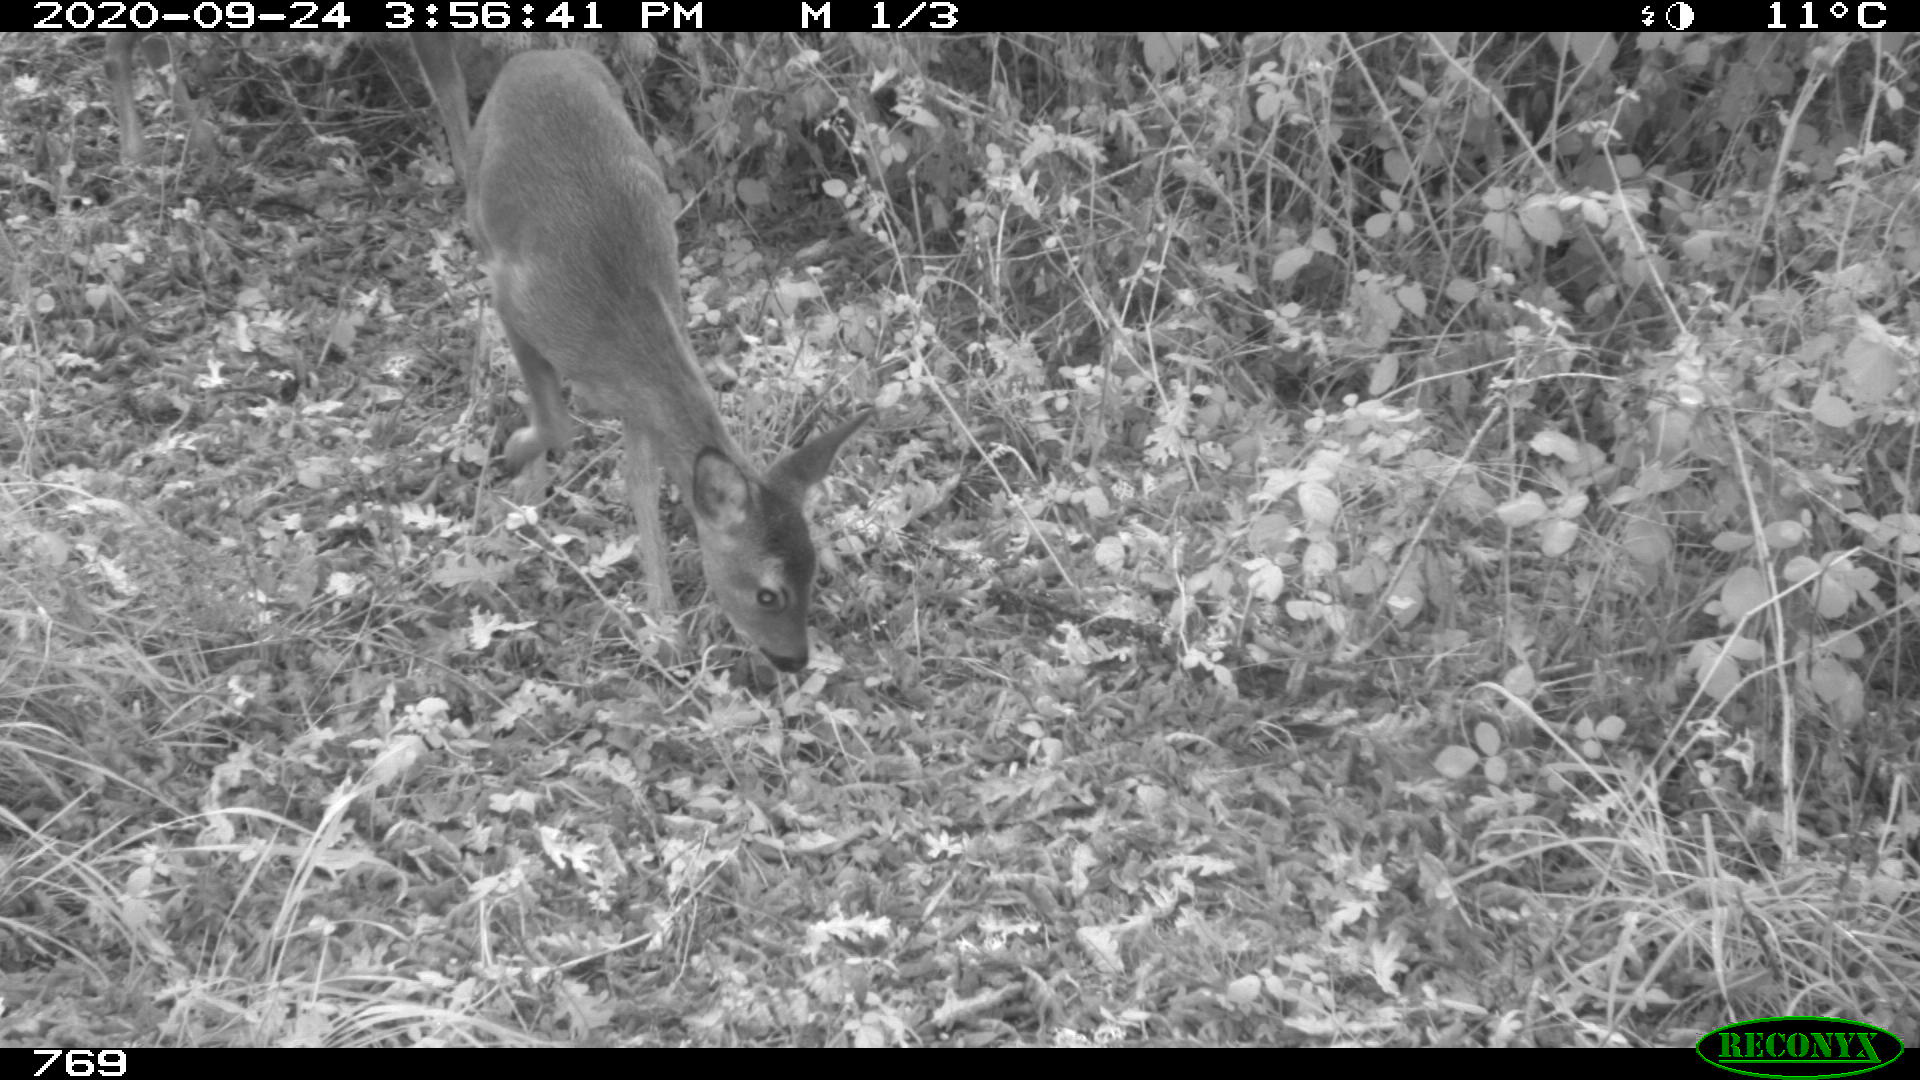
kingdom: Animalia
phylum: Chordata
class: Mammalia
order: Artiodactyla
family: Cervidae
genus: Capreolus
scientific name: Capreolus capreolus
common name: Western roe deer
